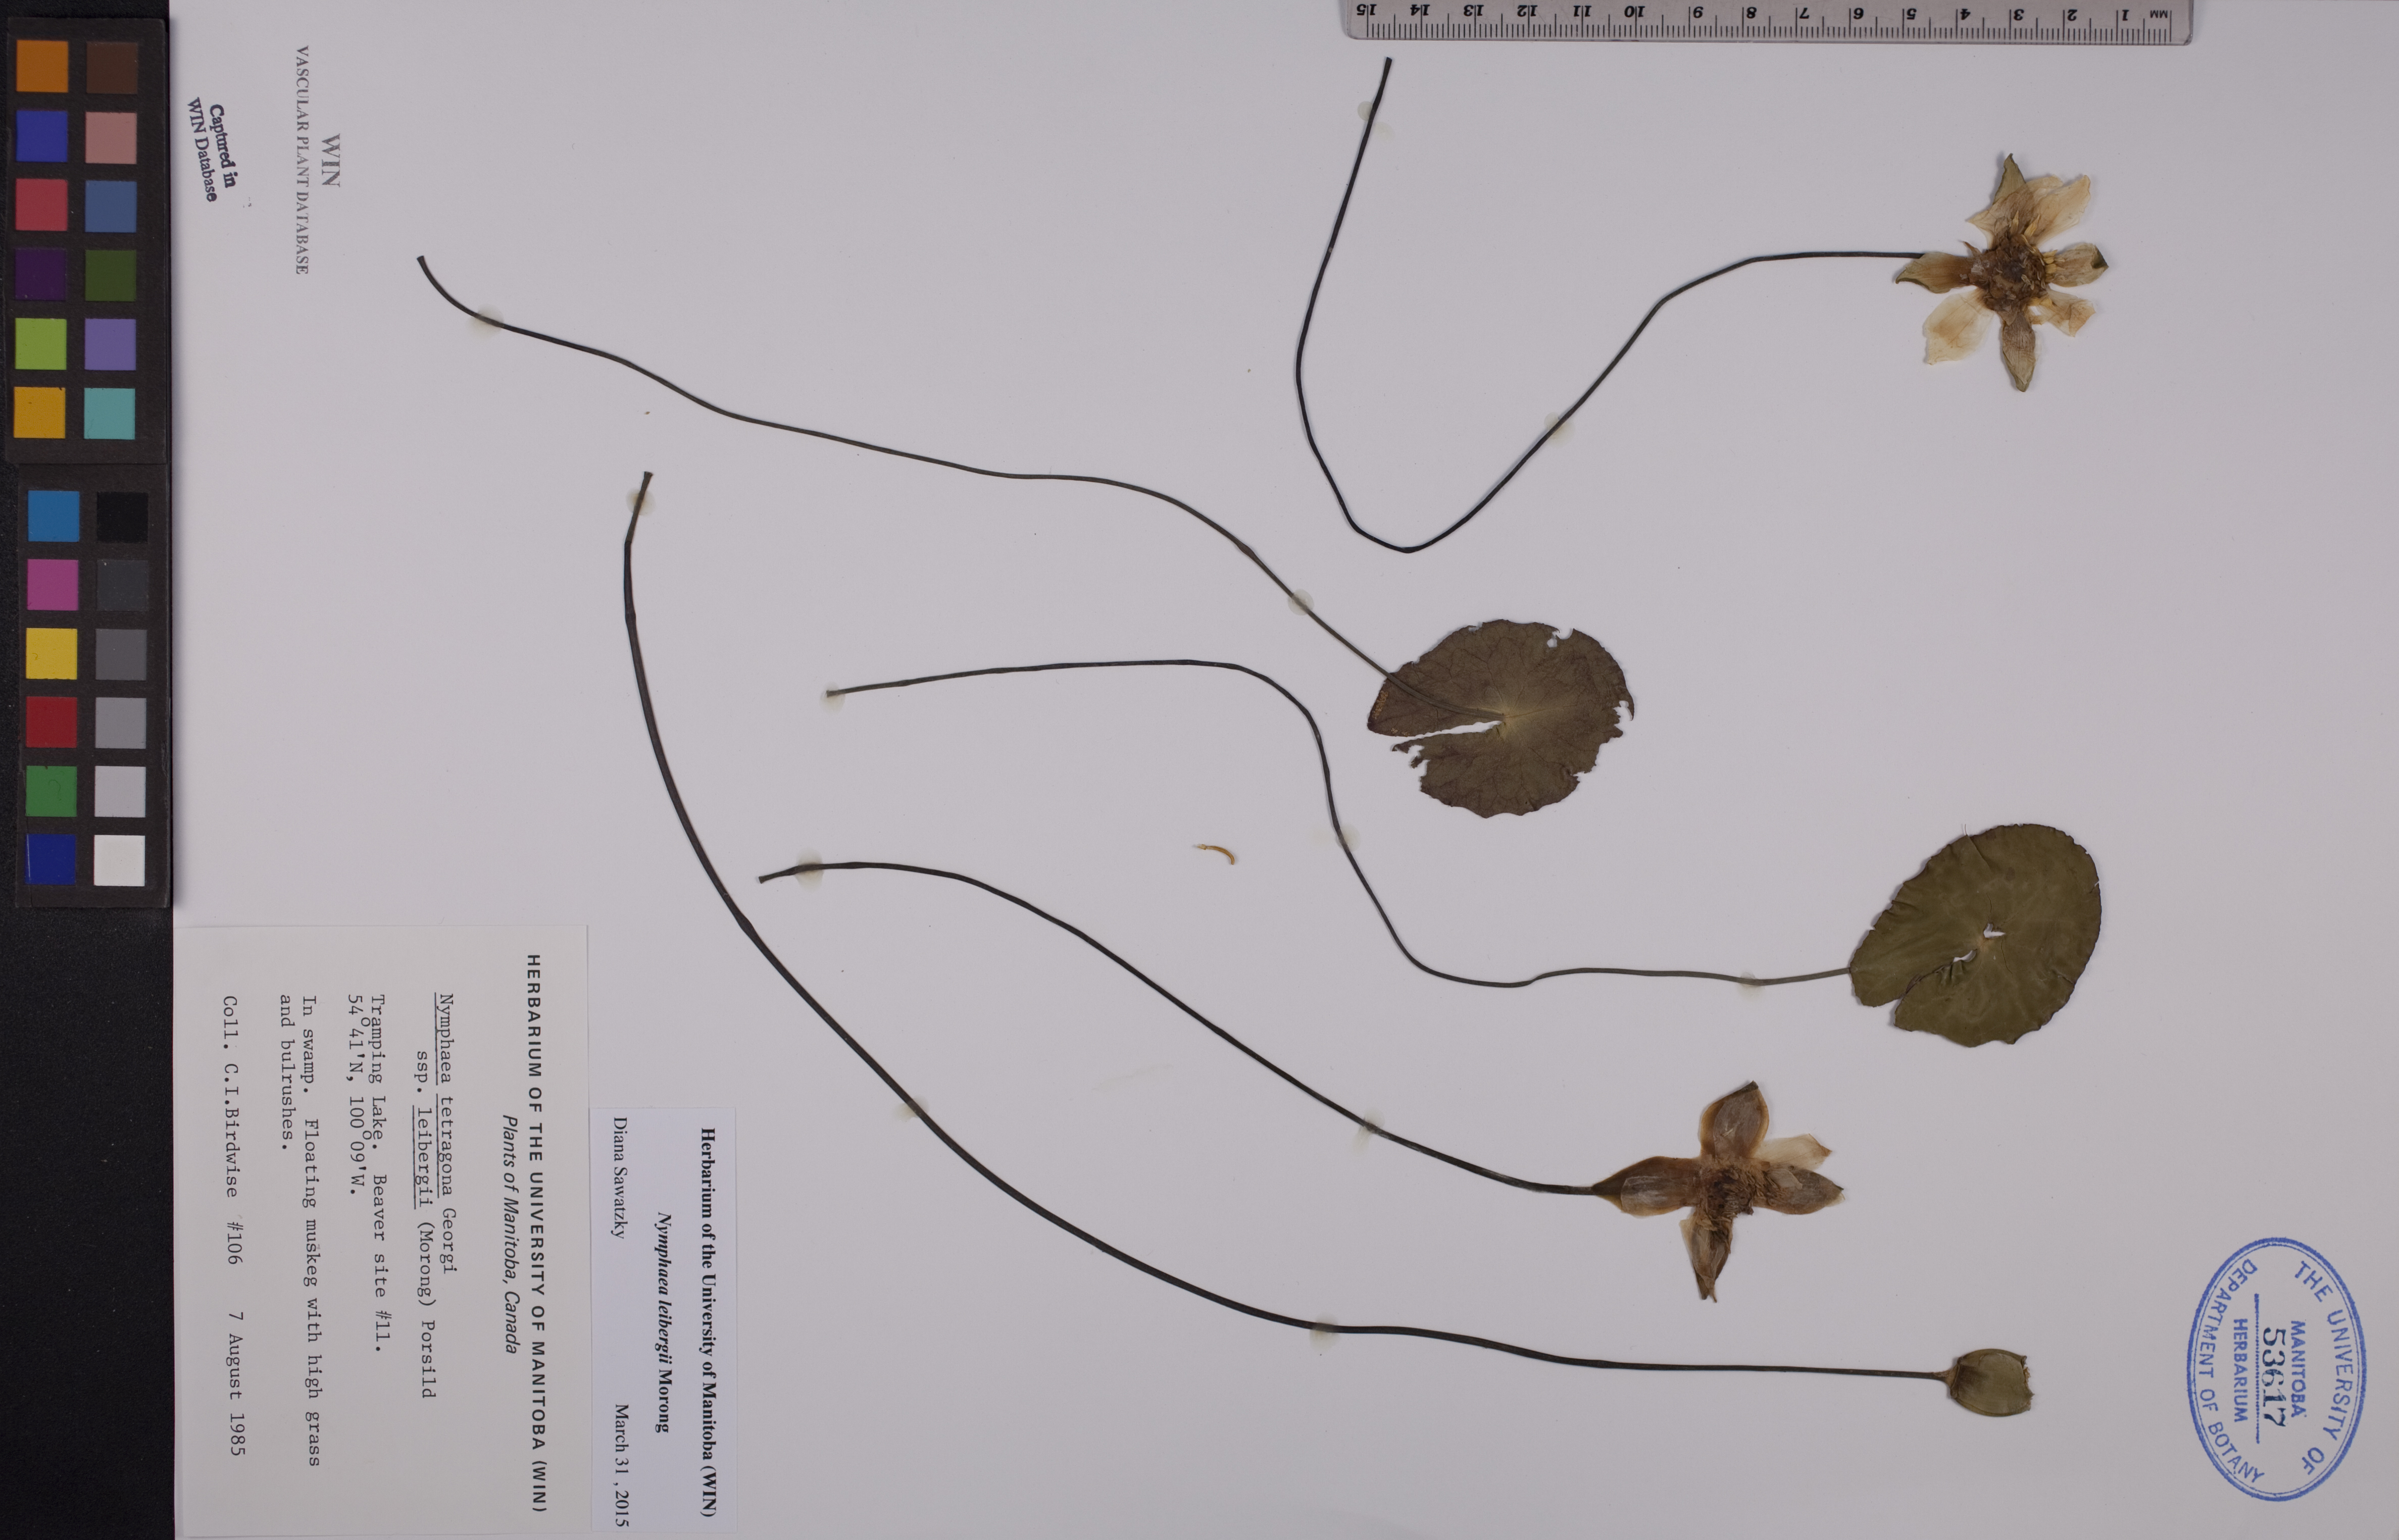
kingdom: Plantae
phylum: Tracheophyta
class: Magnoliopsida
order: Nymphaeales
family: Nymphaeaceae
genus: Nymphaea
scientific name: Nymphaea leibergii
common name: Dwarf water-lily
